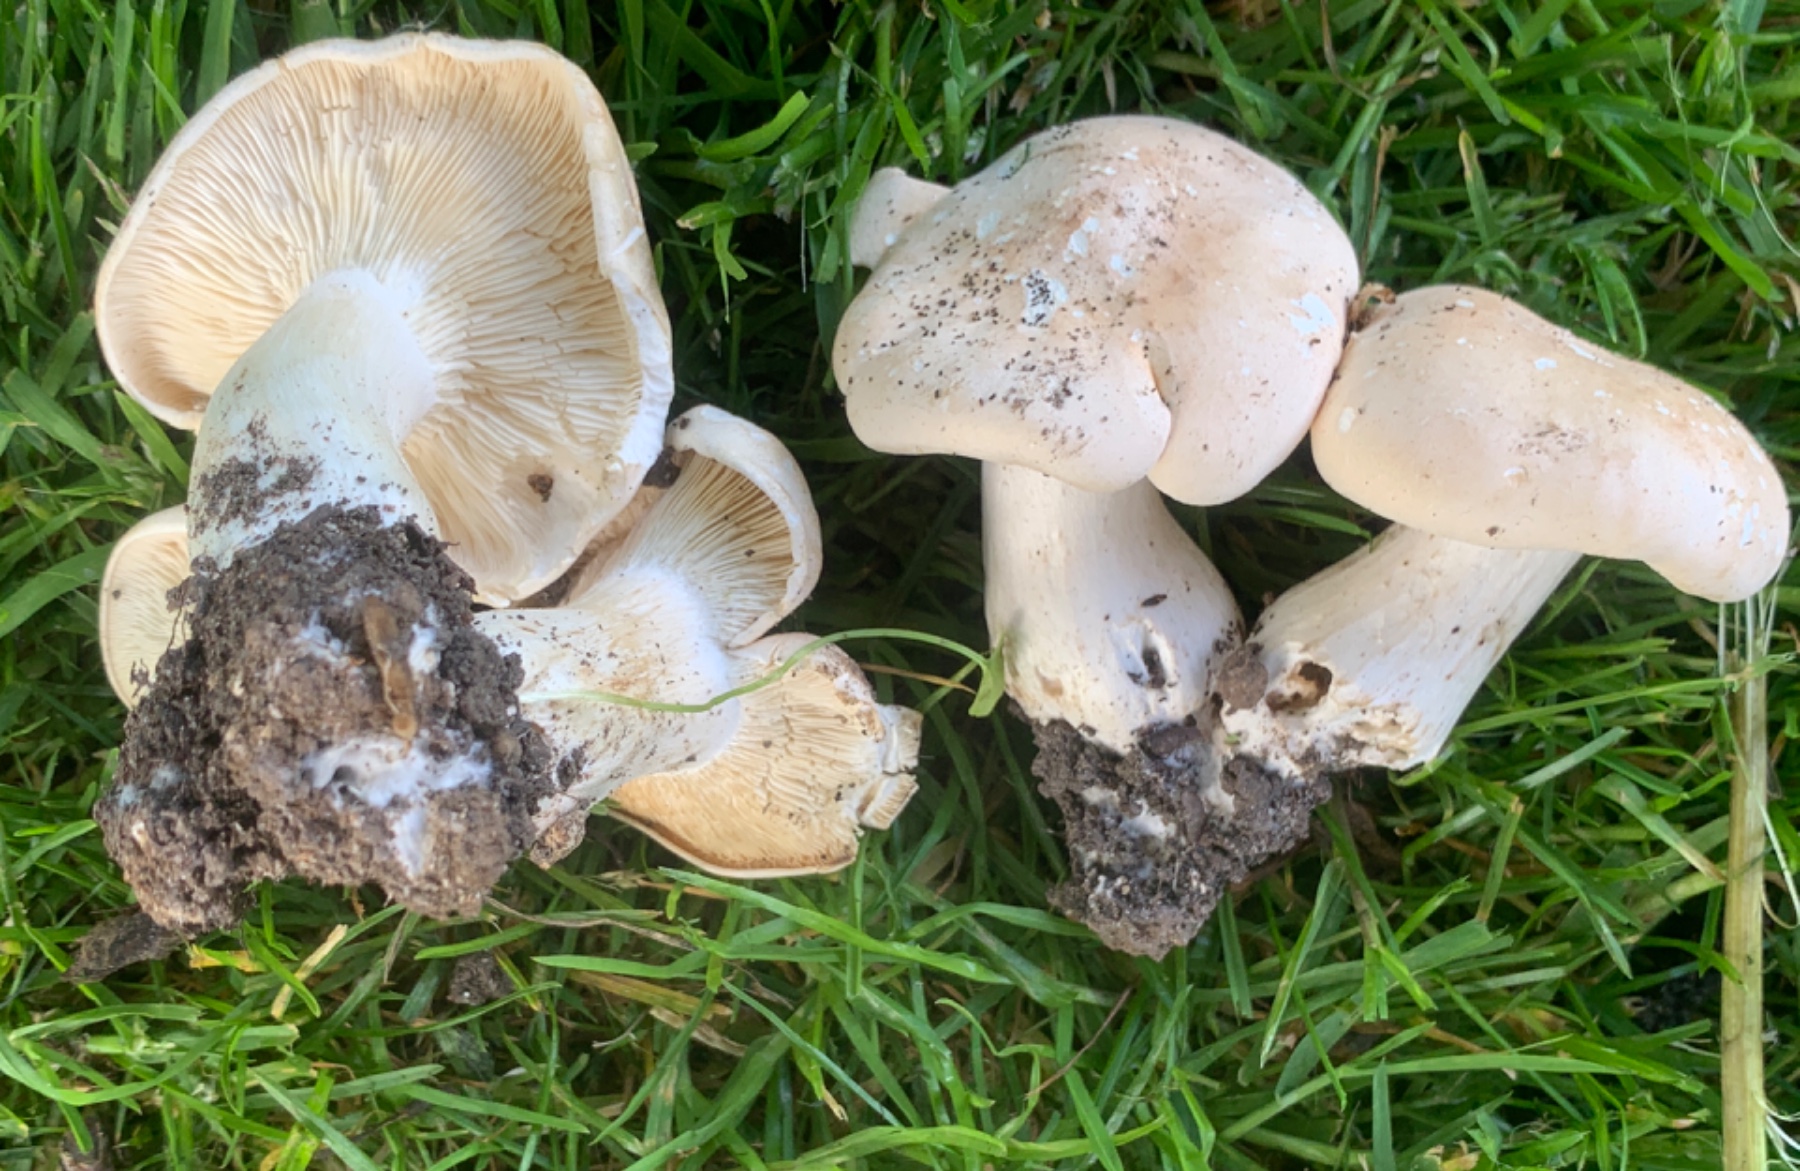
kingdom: Fungi
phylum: Basidiomycota
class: Agaricomycetes
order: Agaricales
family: Lyophyllaceae
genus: Calocybe
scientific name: Calocybe gambosa
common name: vårmusseron
